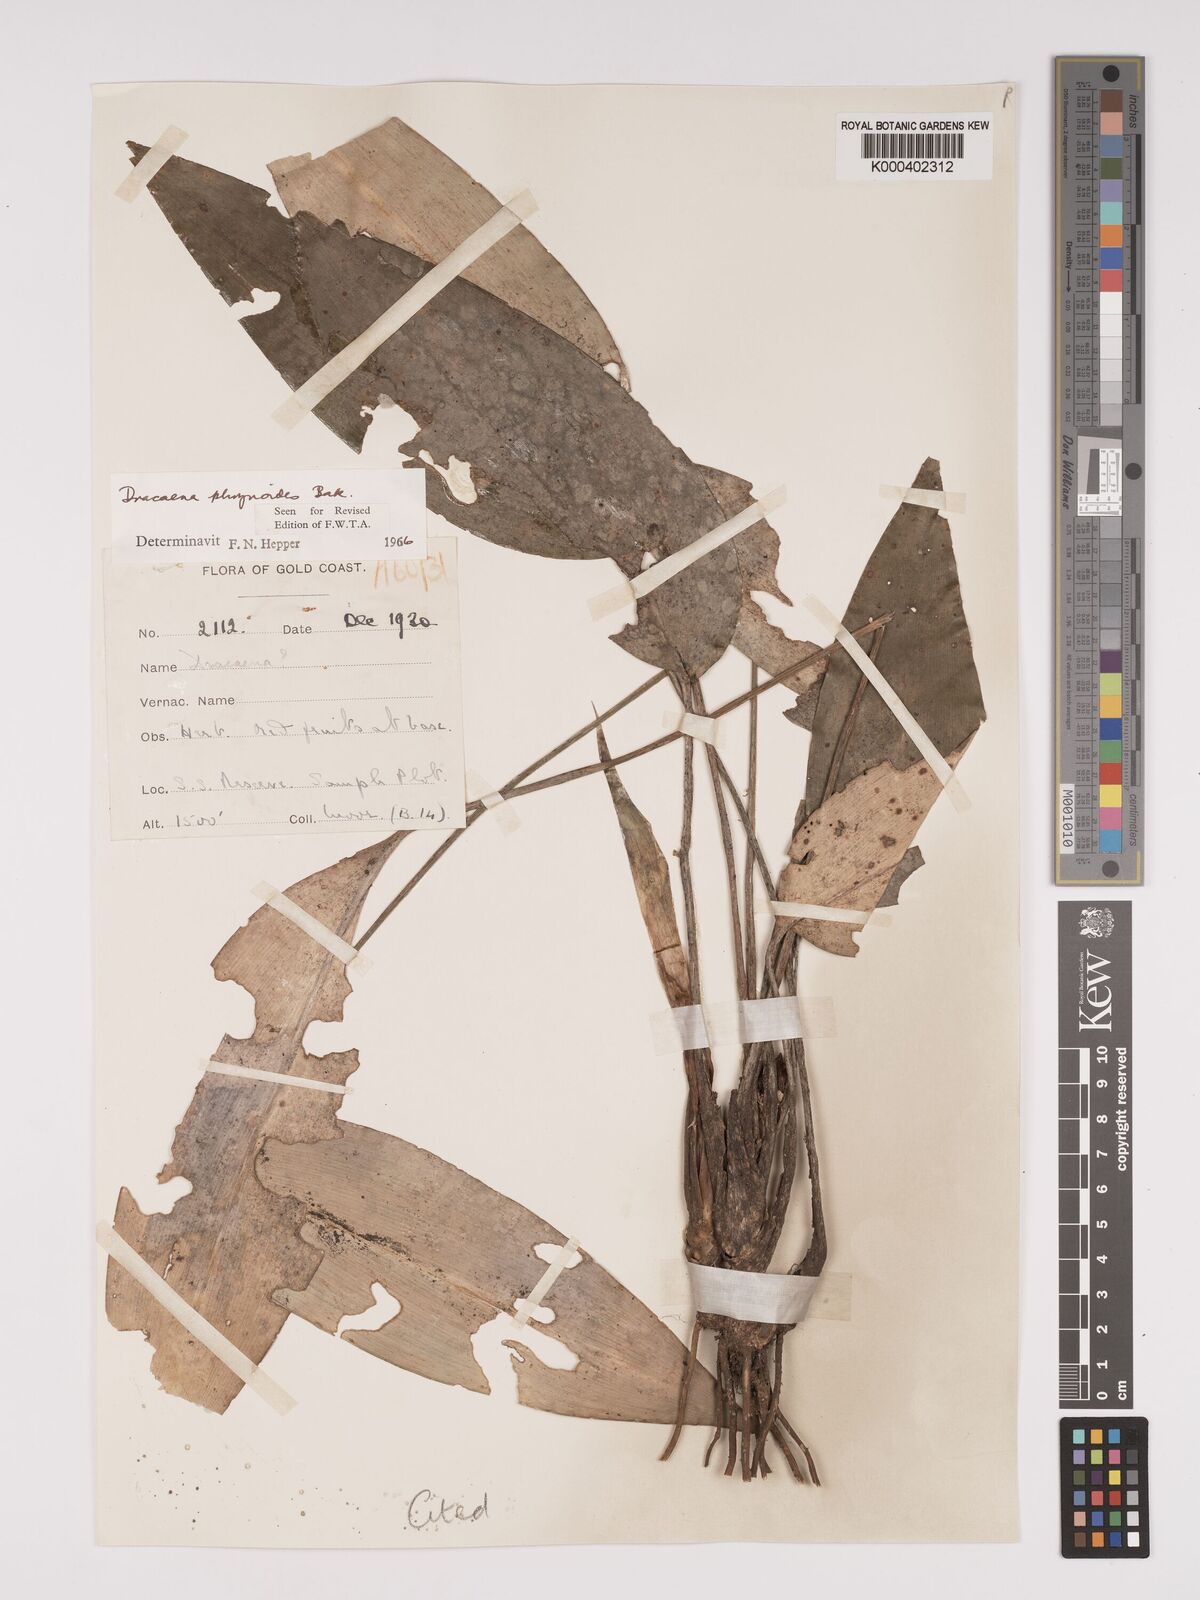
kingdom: Plantae
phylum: Tracheophyta
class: Liliopsida
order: Asparagales
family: Asparagaceae
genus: Dracaena
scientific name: Dracaena phrynioides
